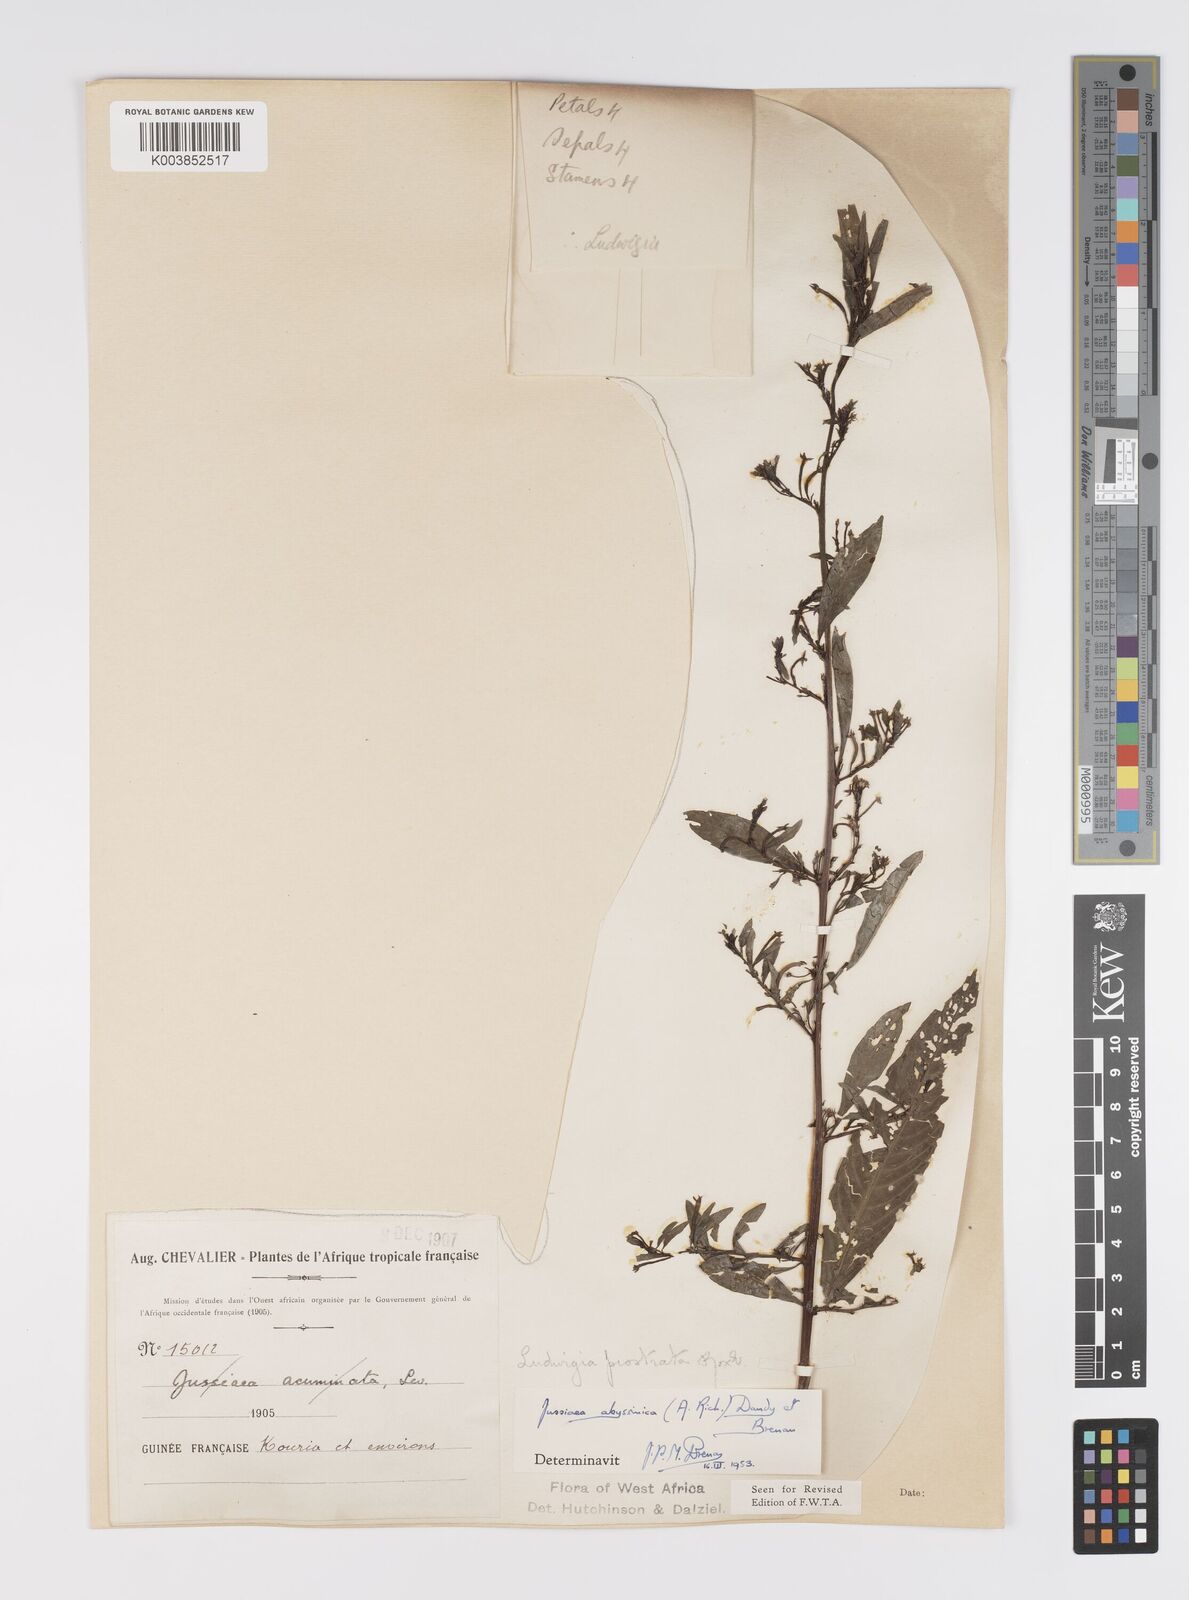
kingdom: Plantae
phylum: Tracheophyta
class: Magnoliopsida
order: Myrtales
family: Onagraceae
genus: Ludwigia
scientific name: Ludwigia abyssinica
